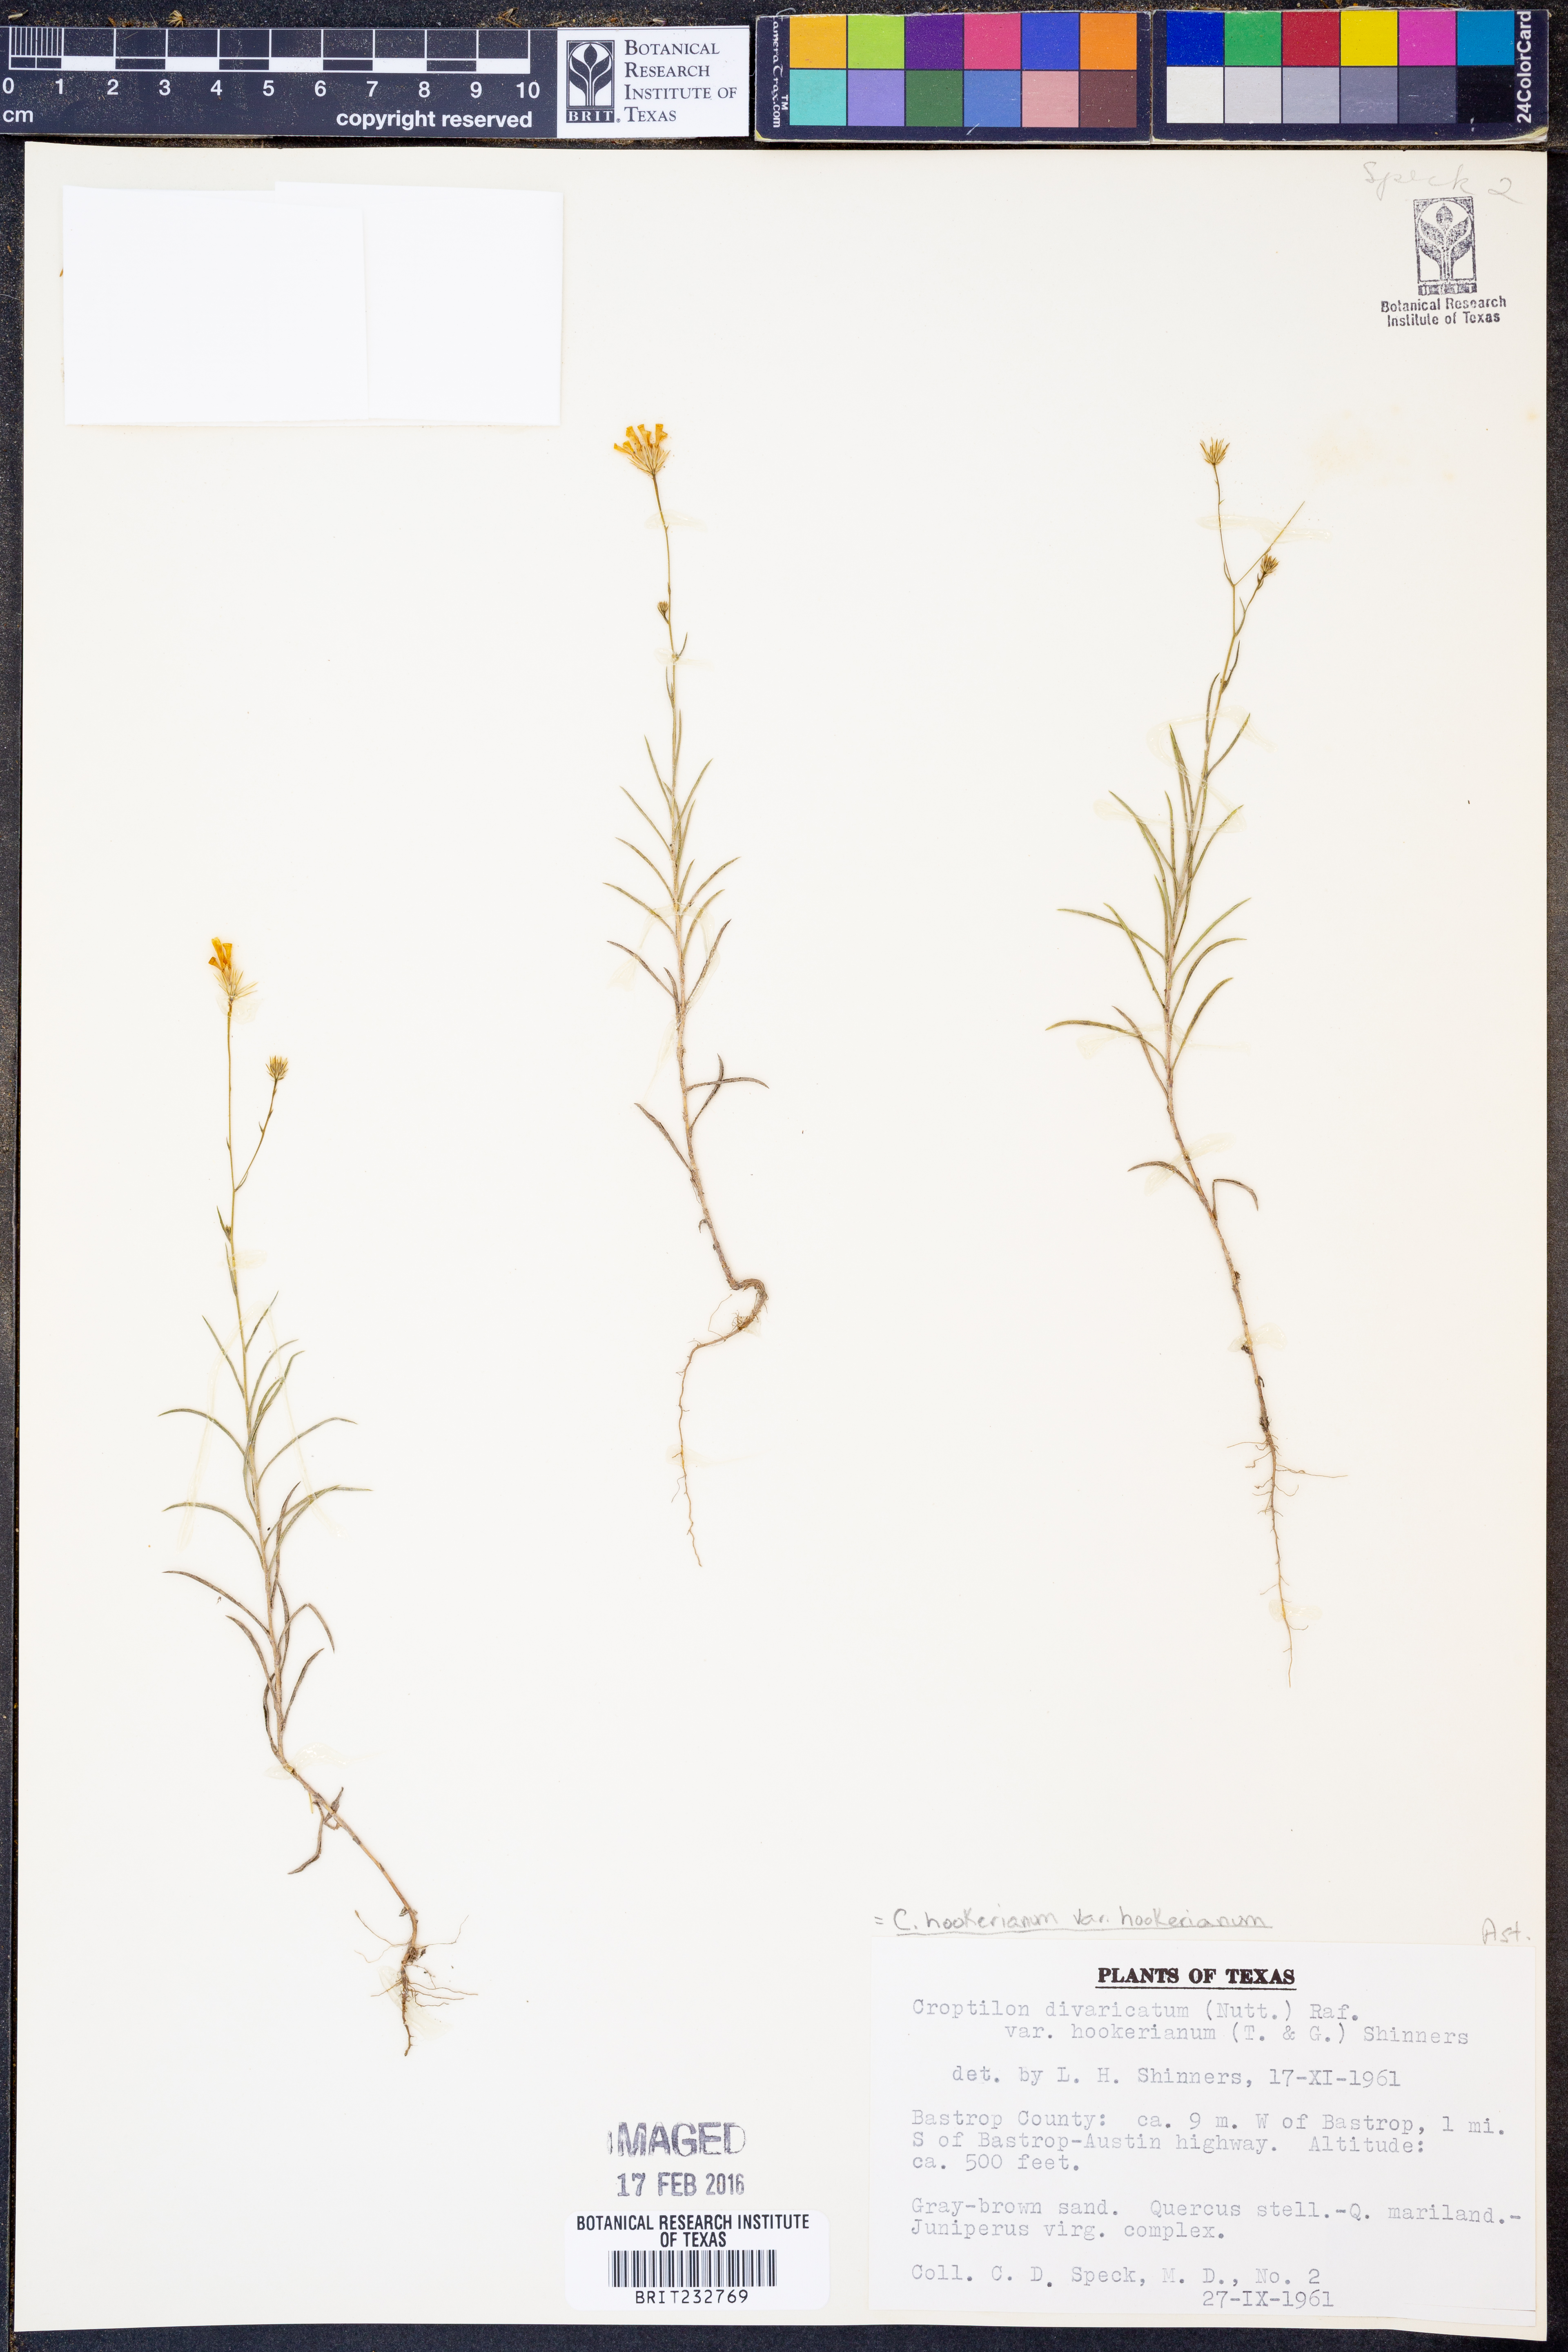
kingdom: Plantae
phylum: Tracheophyta
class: Magnoliopsida
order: Asterales
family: Asteraceae
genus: Croptilon
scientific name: Croptilon hookerianum
